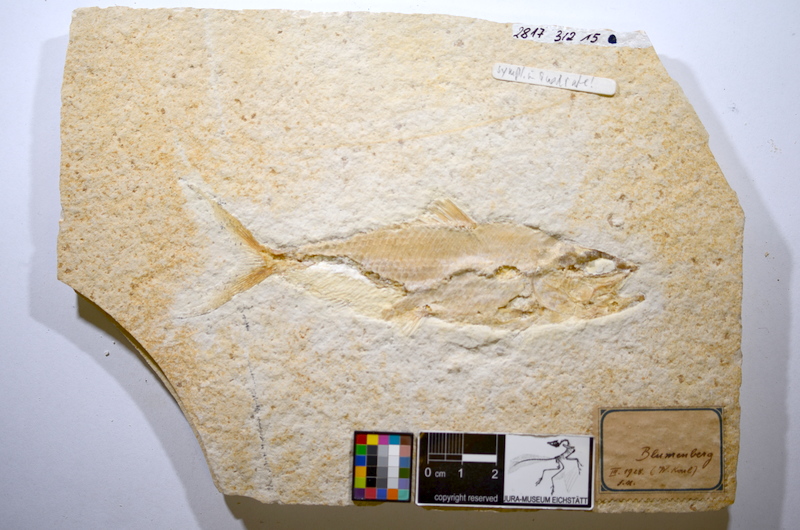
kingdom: Animalia
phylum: Chordata
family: Ankylophoridae
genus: Pholidophoristion
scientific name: Pholidophoristion micronyx
